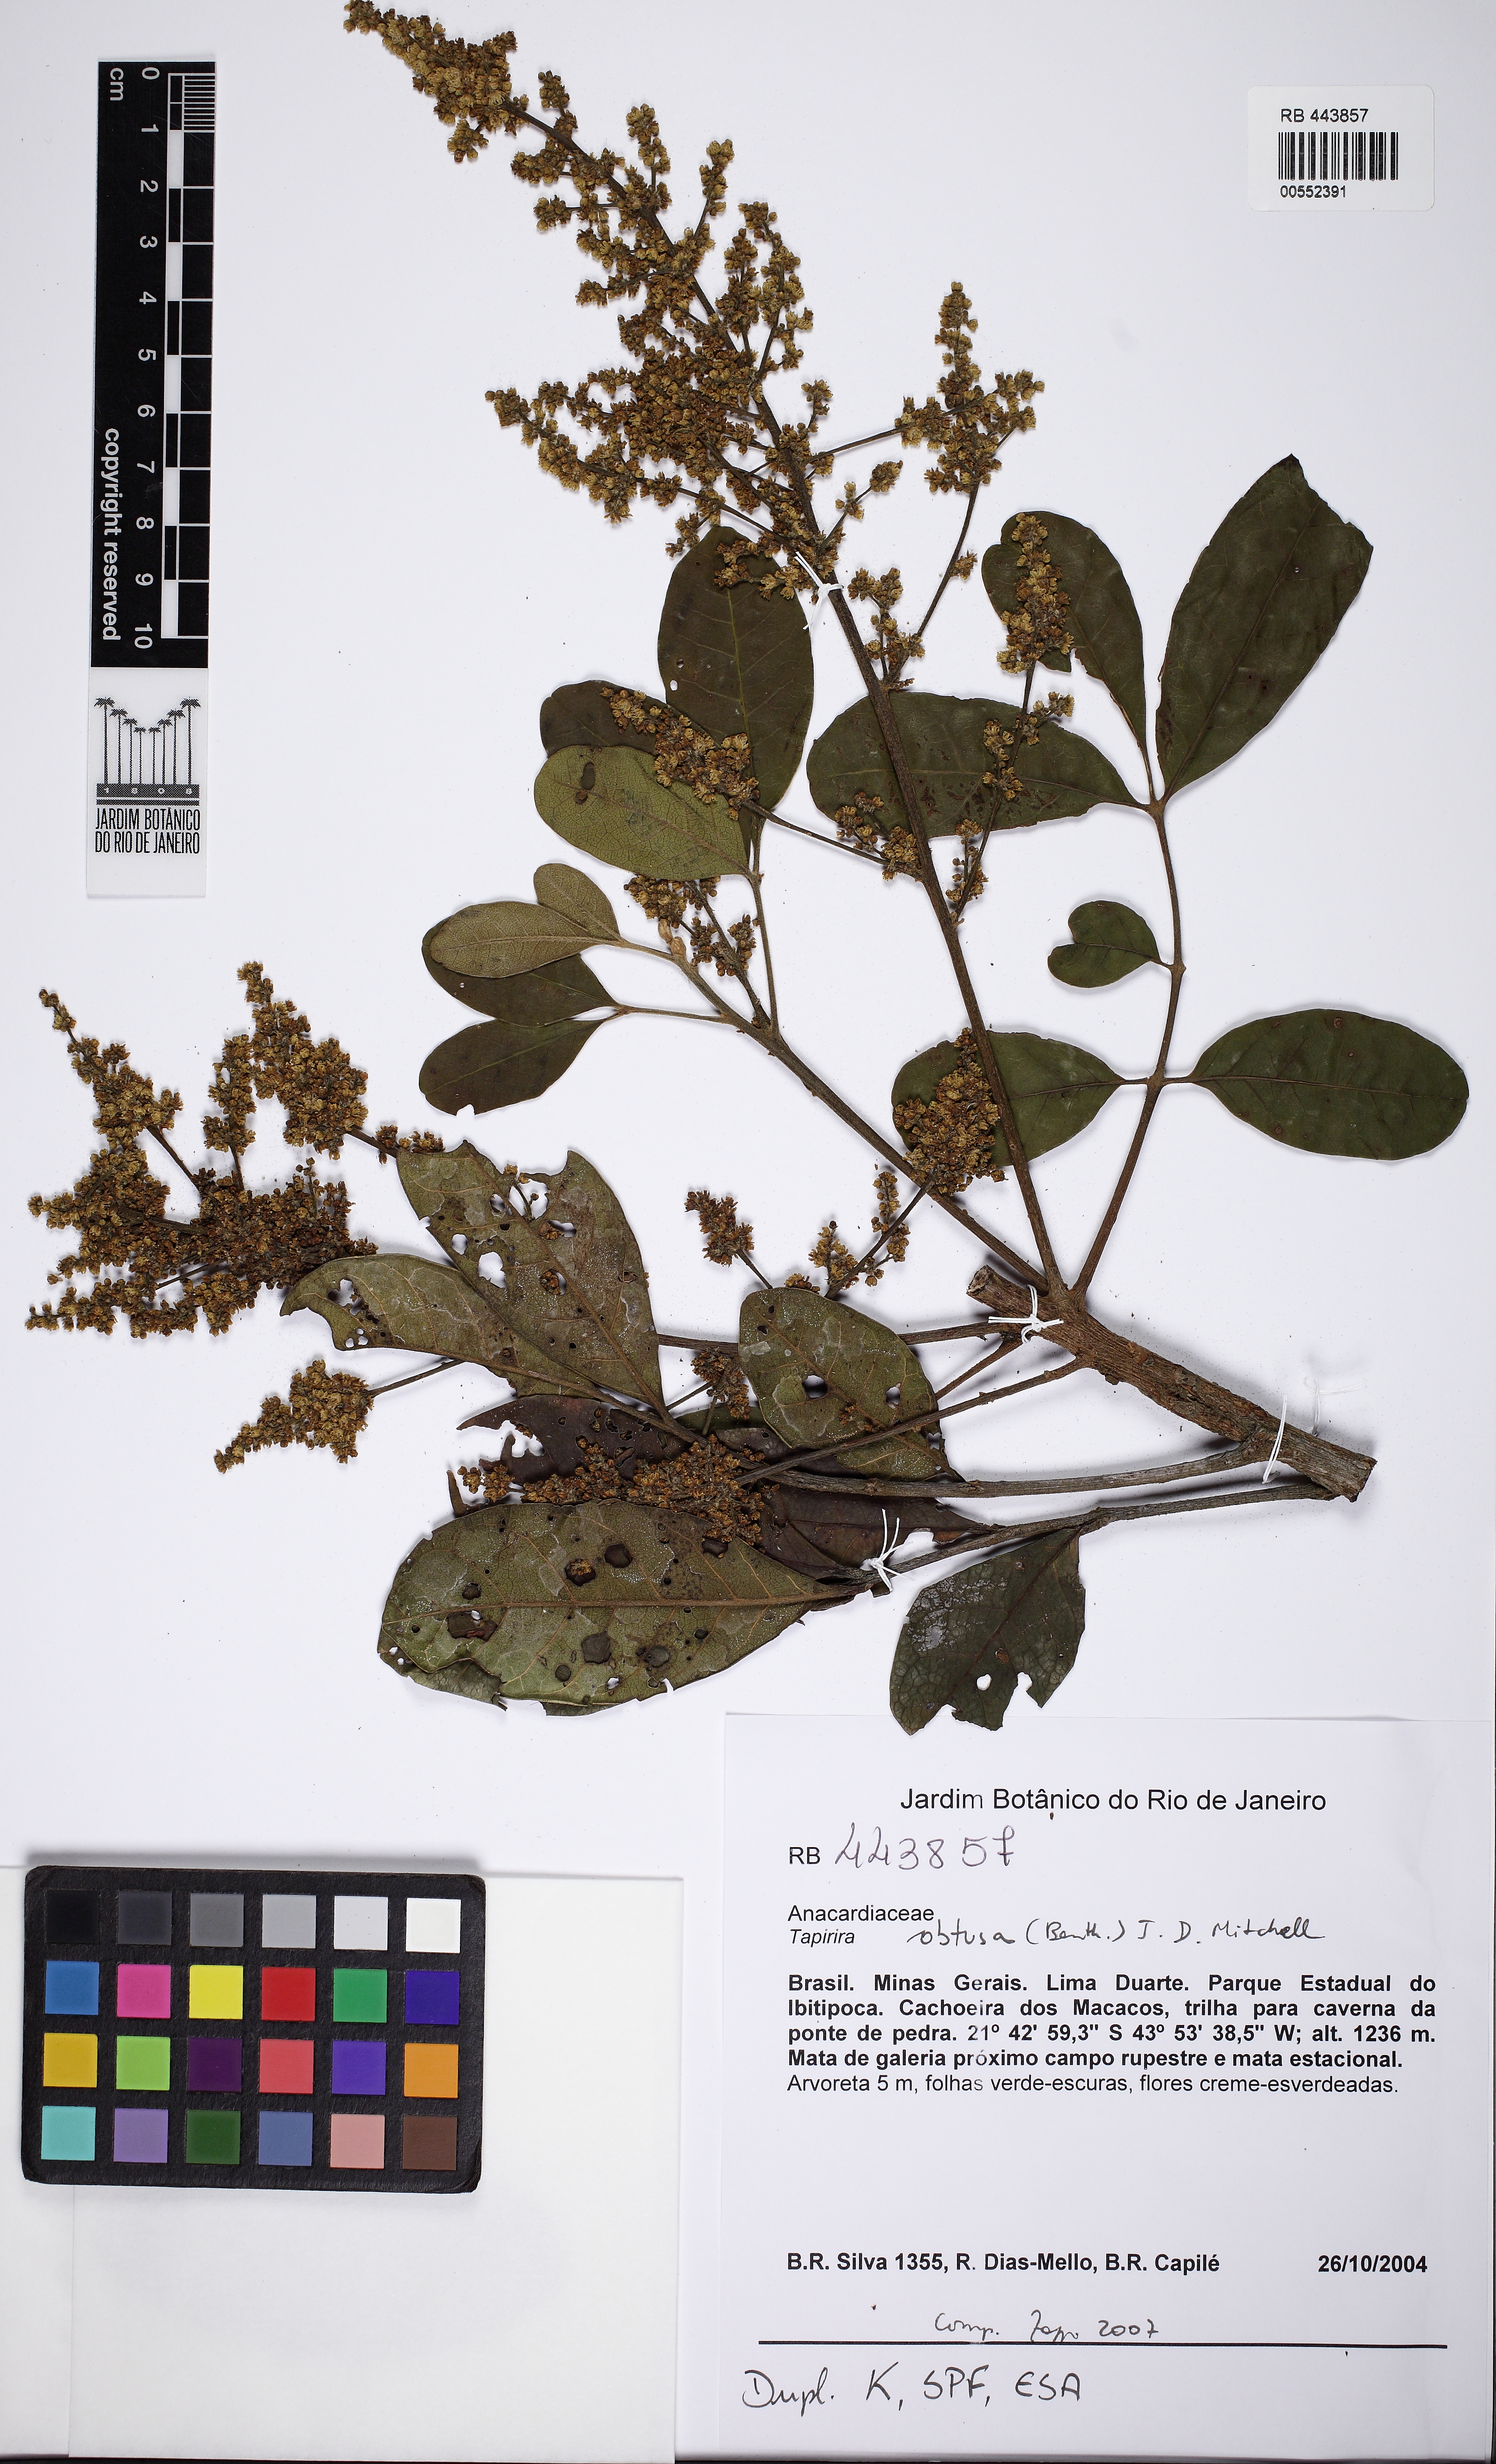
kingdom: Plantae
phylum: Tracheophyta
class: Magnoliopsida
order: Sapindales
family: Anacardiaceae
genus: Tapirira
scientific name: Tapirira obtusa
